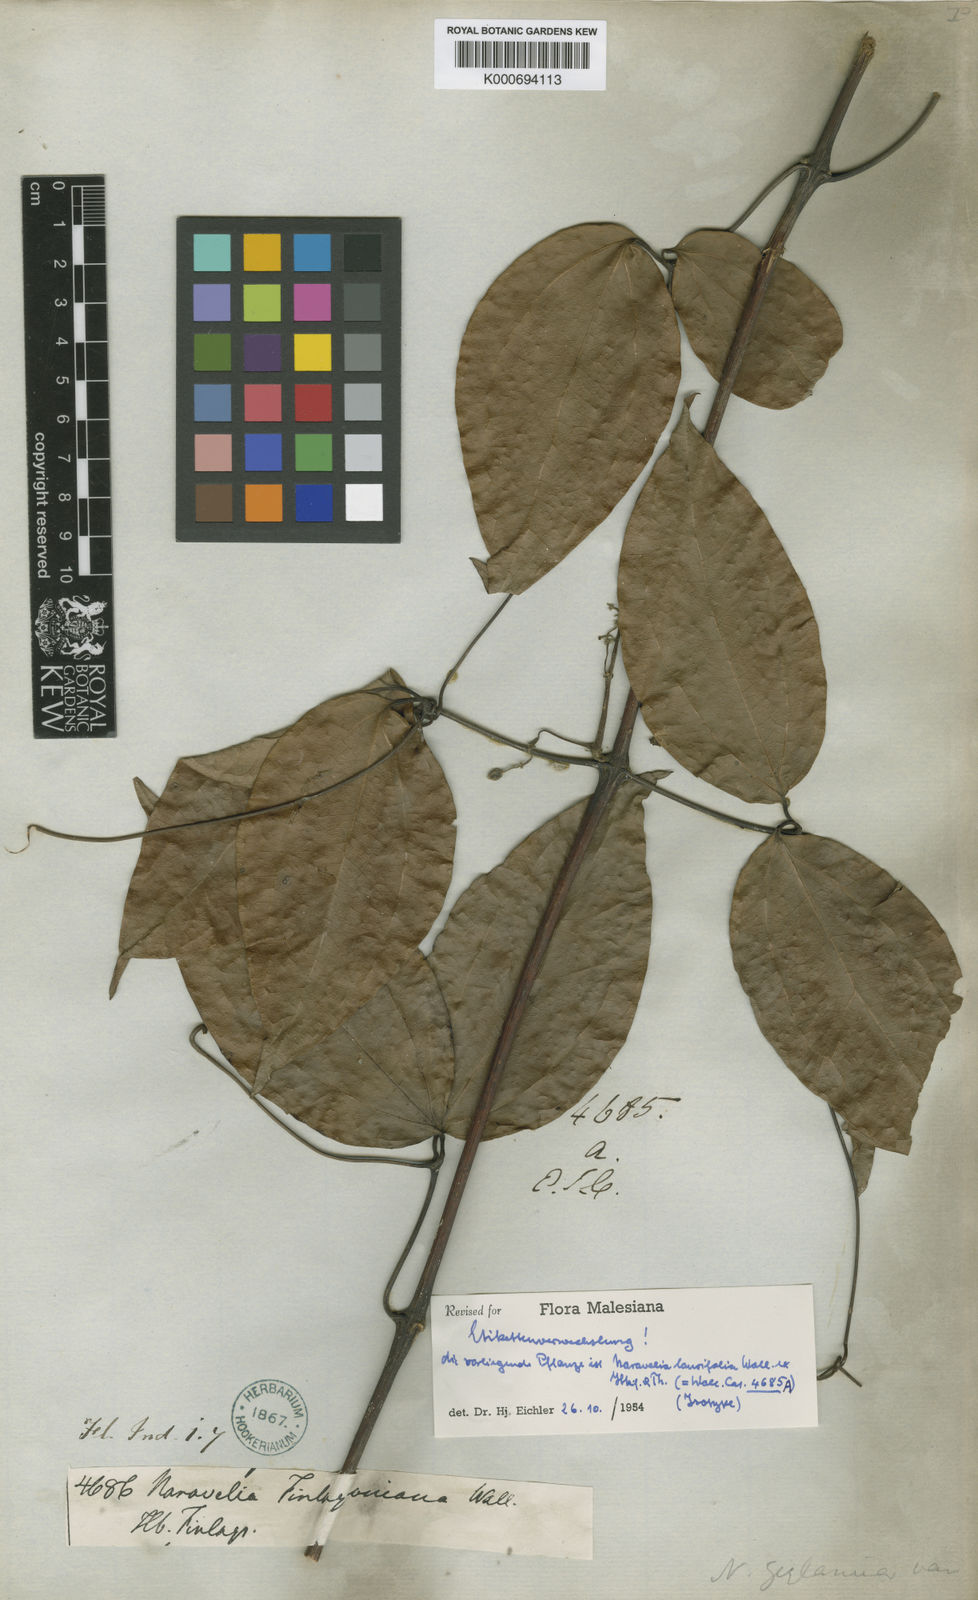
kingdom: Plantae
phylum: Tracheophyta
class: Magnoliopsida
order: Ranunculales
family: Ranunculaceae
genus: Clematis
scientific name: Clematis horripilata
